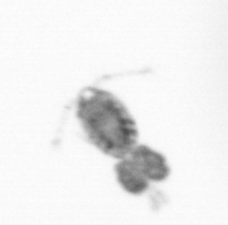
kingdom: Animalia
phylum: Arthropoda
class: Copepoda
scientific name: Copepoda
